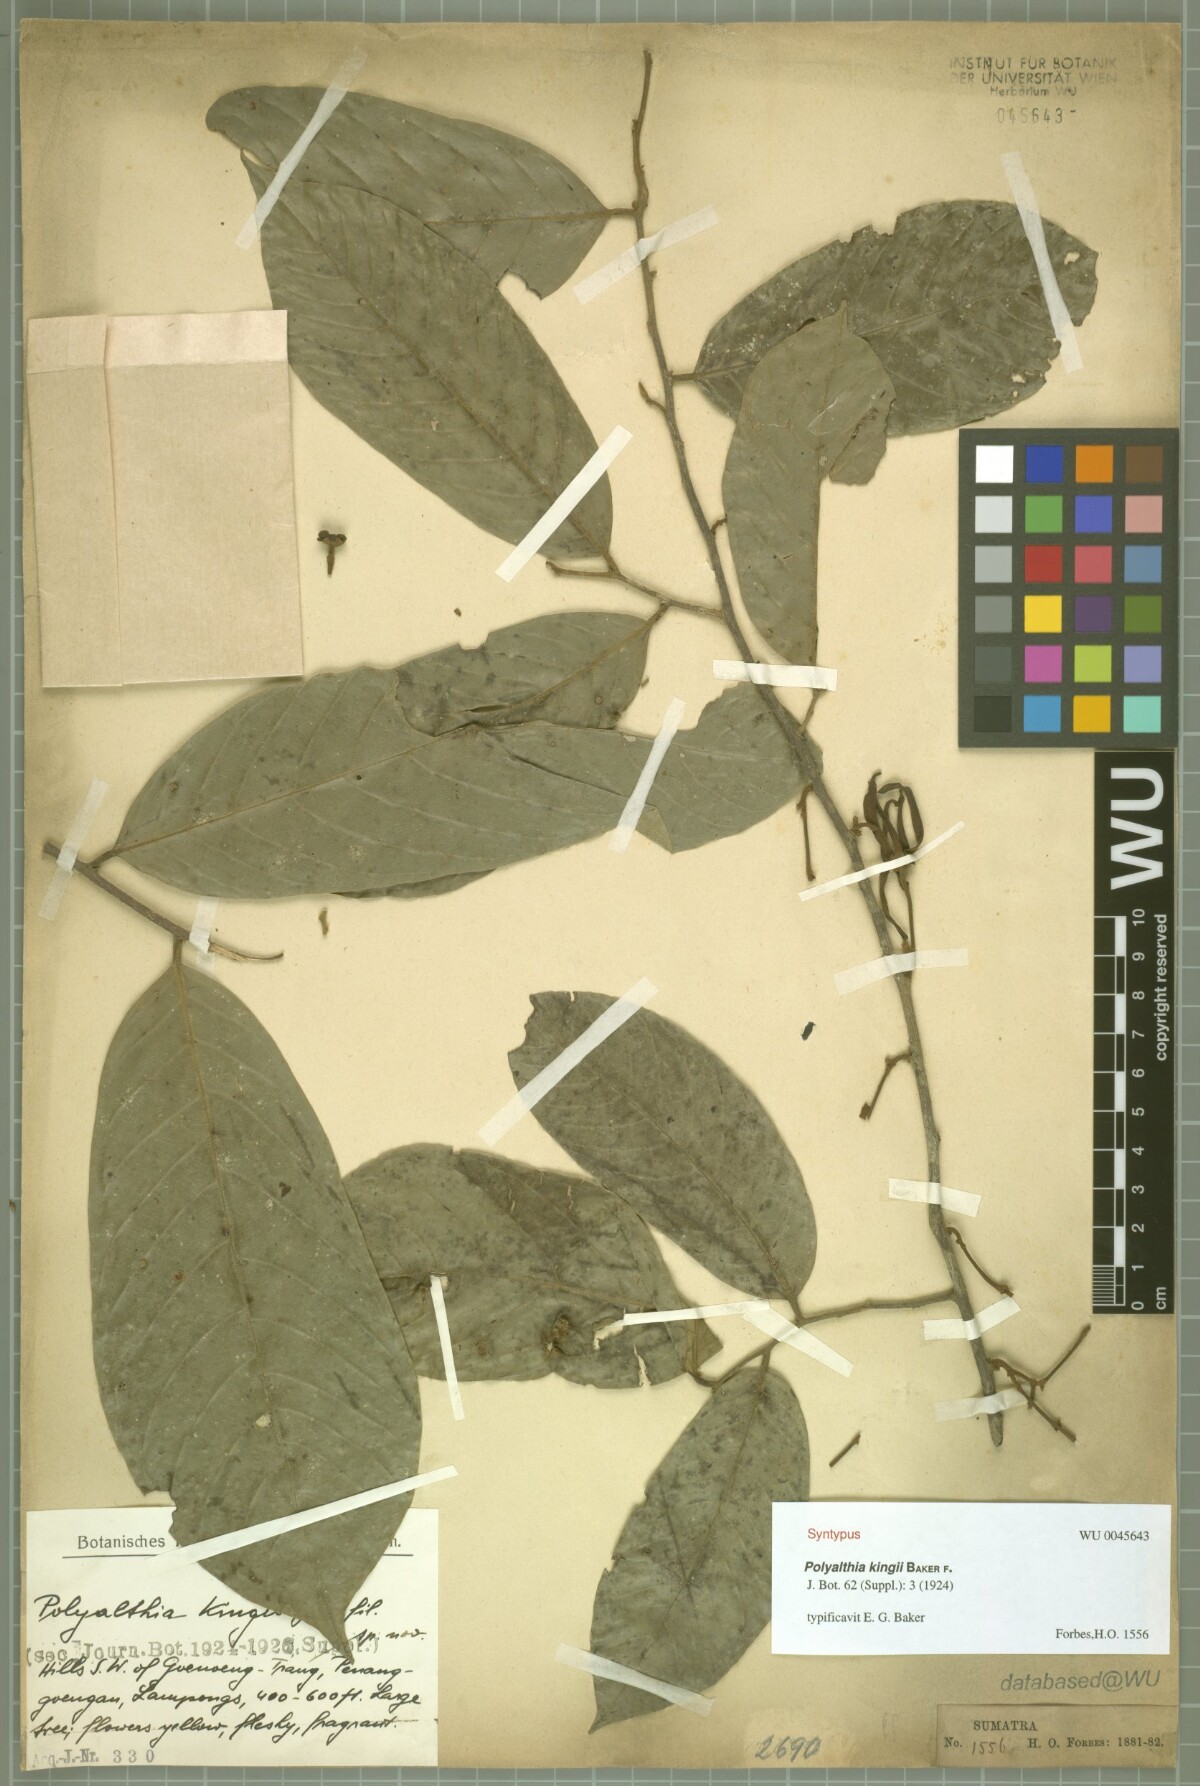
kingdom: Plantae
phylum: Tracheophyta
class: Magnoliopsida
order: Magnoliales
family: Annonaceae
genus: Polyalthia
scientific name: Polyalthia kingii
